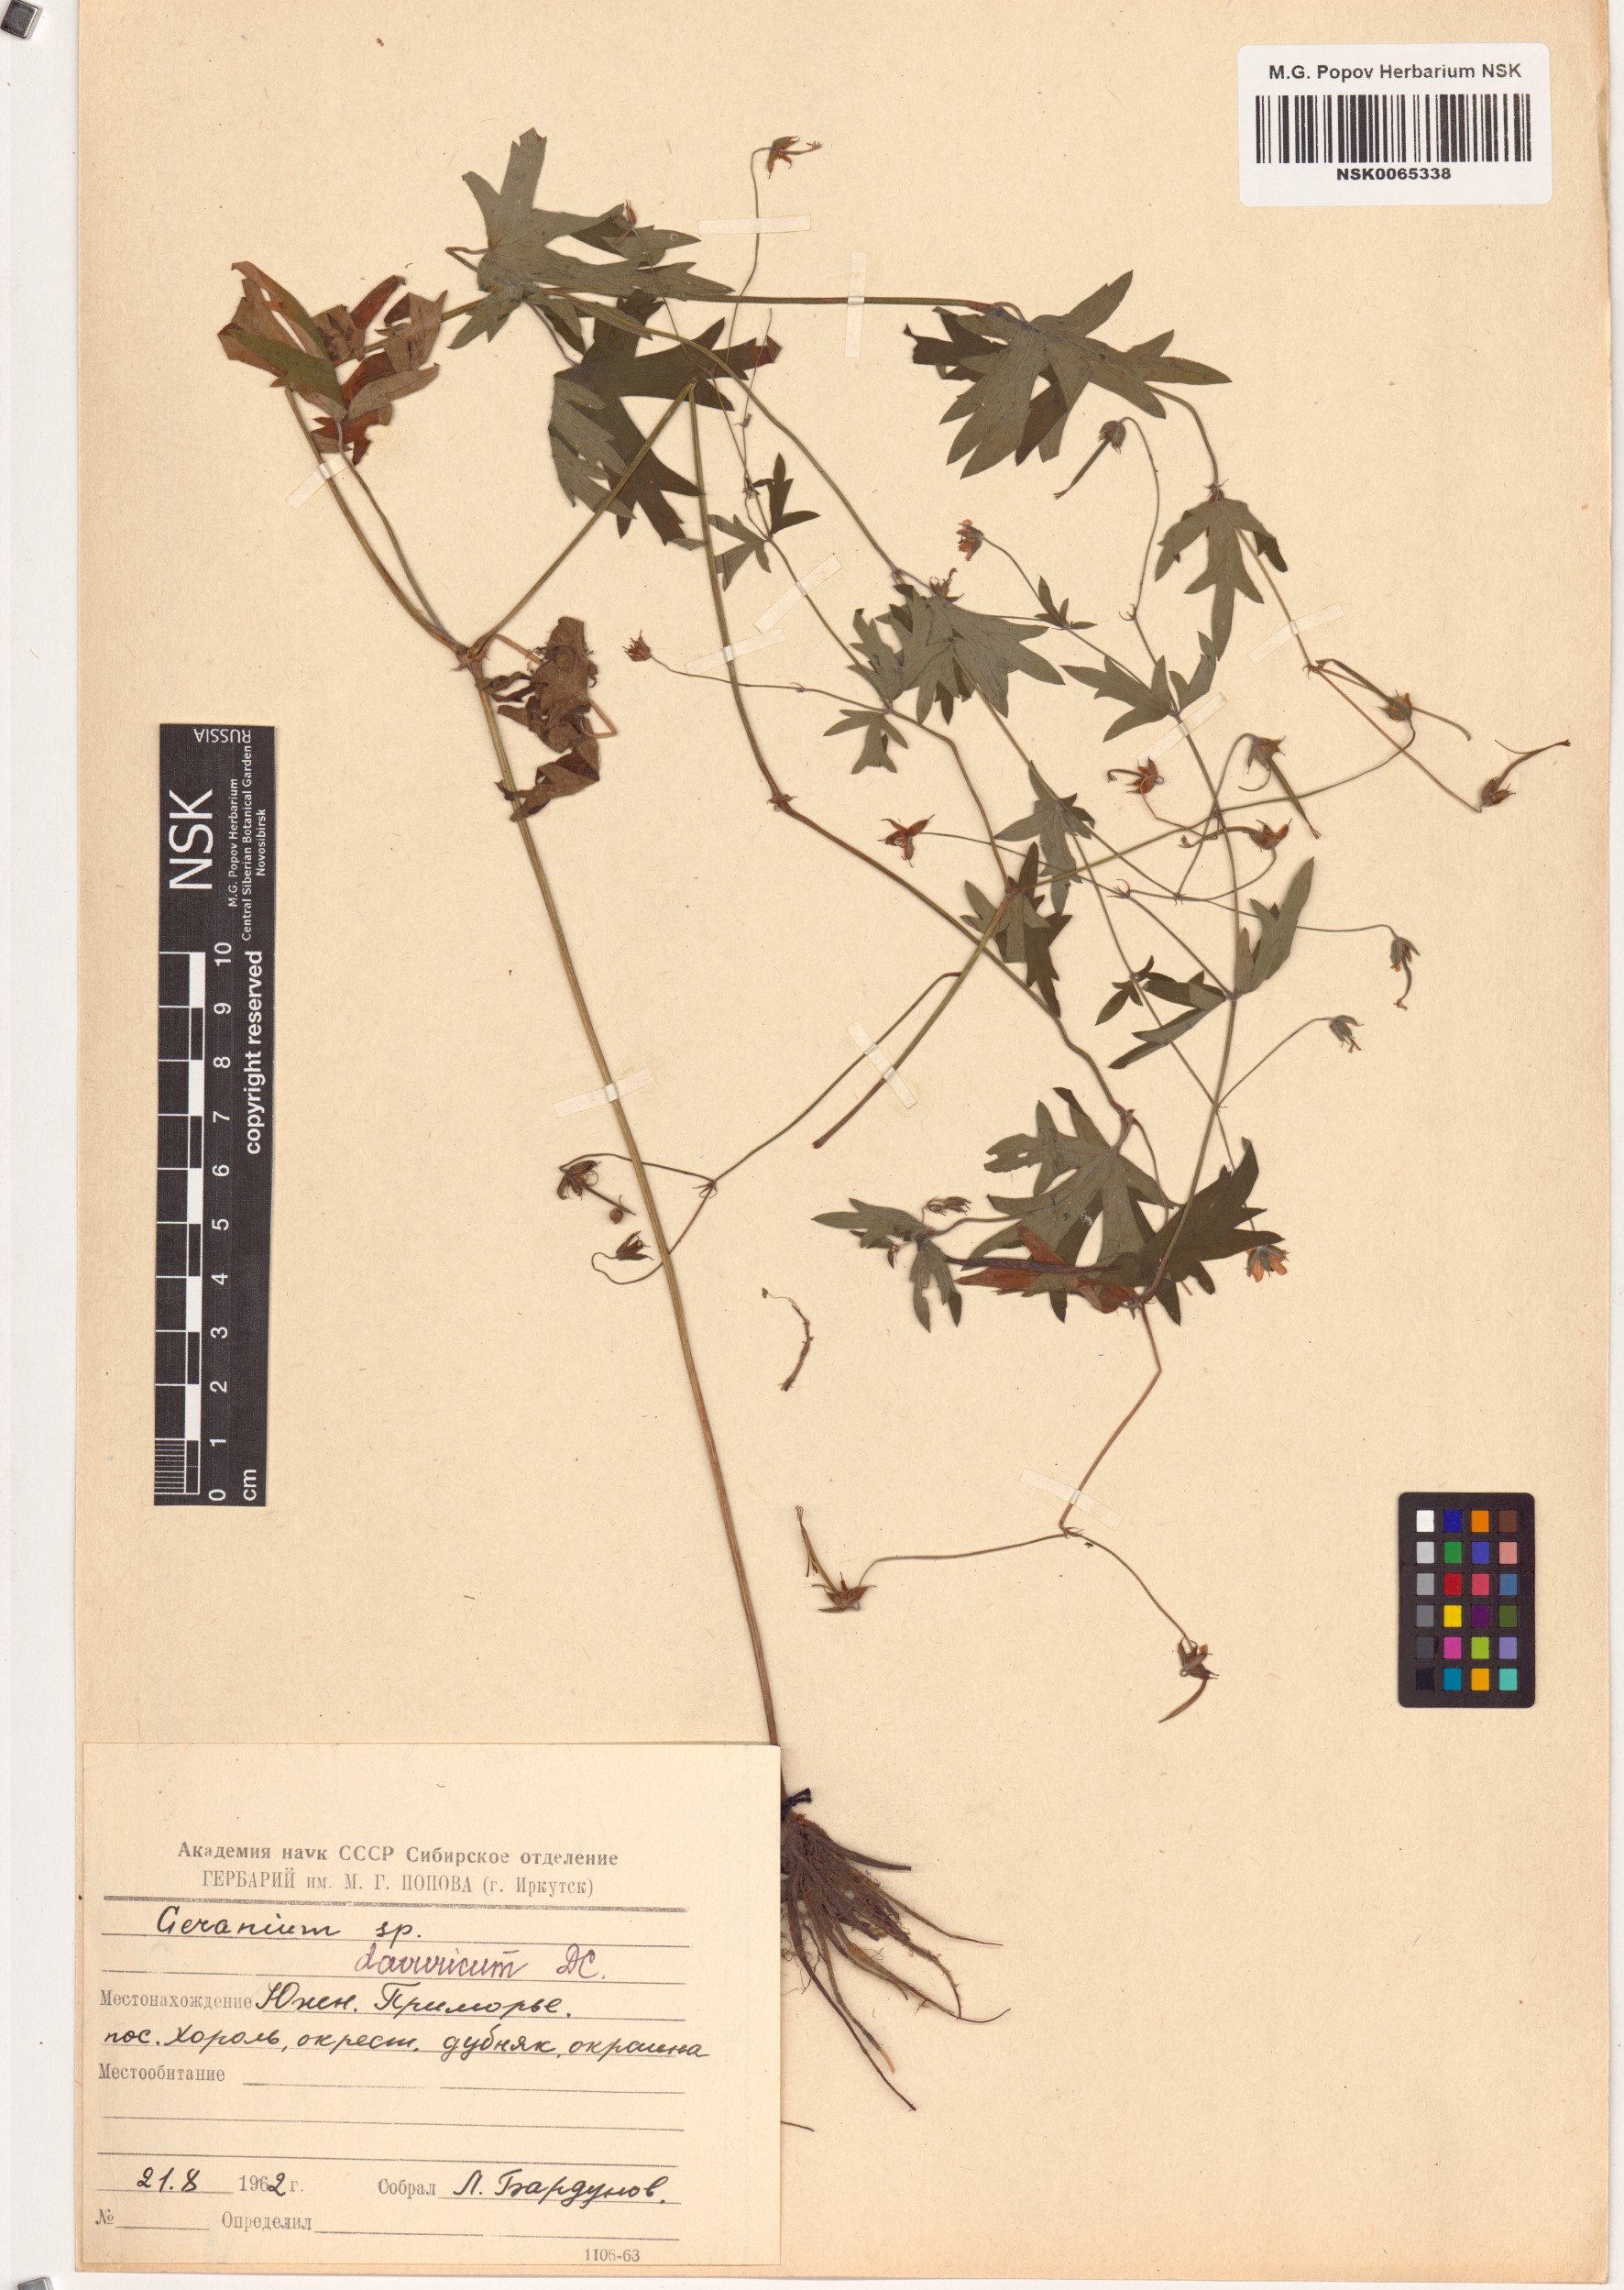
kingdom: Plantae
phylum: Tracheophyta
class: Magnoliopsida
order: Geraniales
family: Geraniaceae
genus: Geranium
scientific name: Geranium dahuricum
